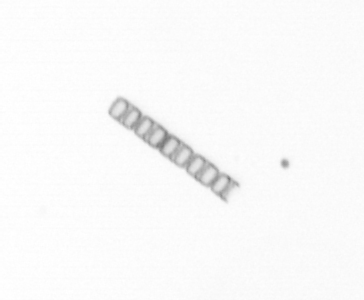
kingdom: Chromista
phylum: Ochrophyta
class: Bacillariophyceae
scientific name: Bacillariophyceae
